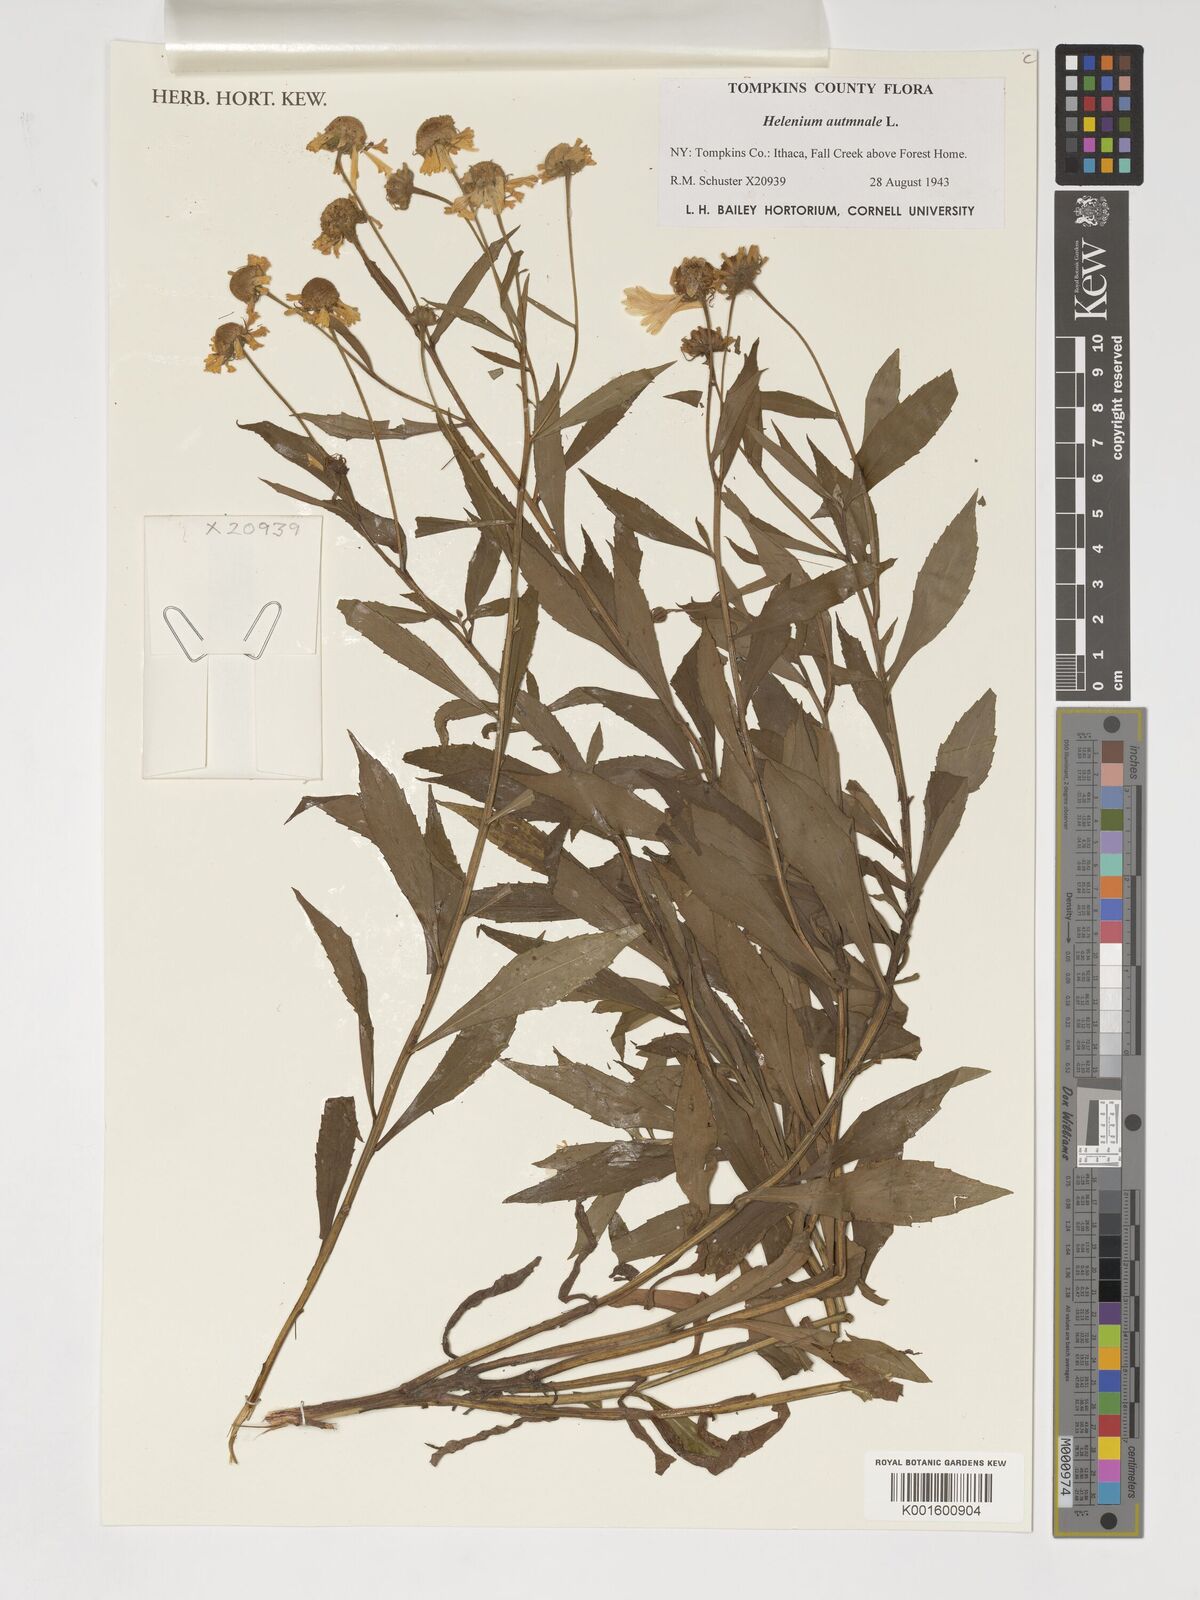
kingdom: Plantae
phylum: Tracheophyta
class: Magnoliopsida
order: Asterales
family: Asteraceae
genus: Helenium
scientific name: Helenium autumnale
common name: Sneezeweed
